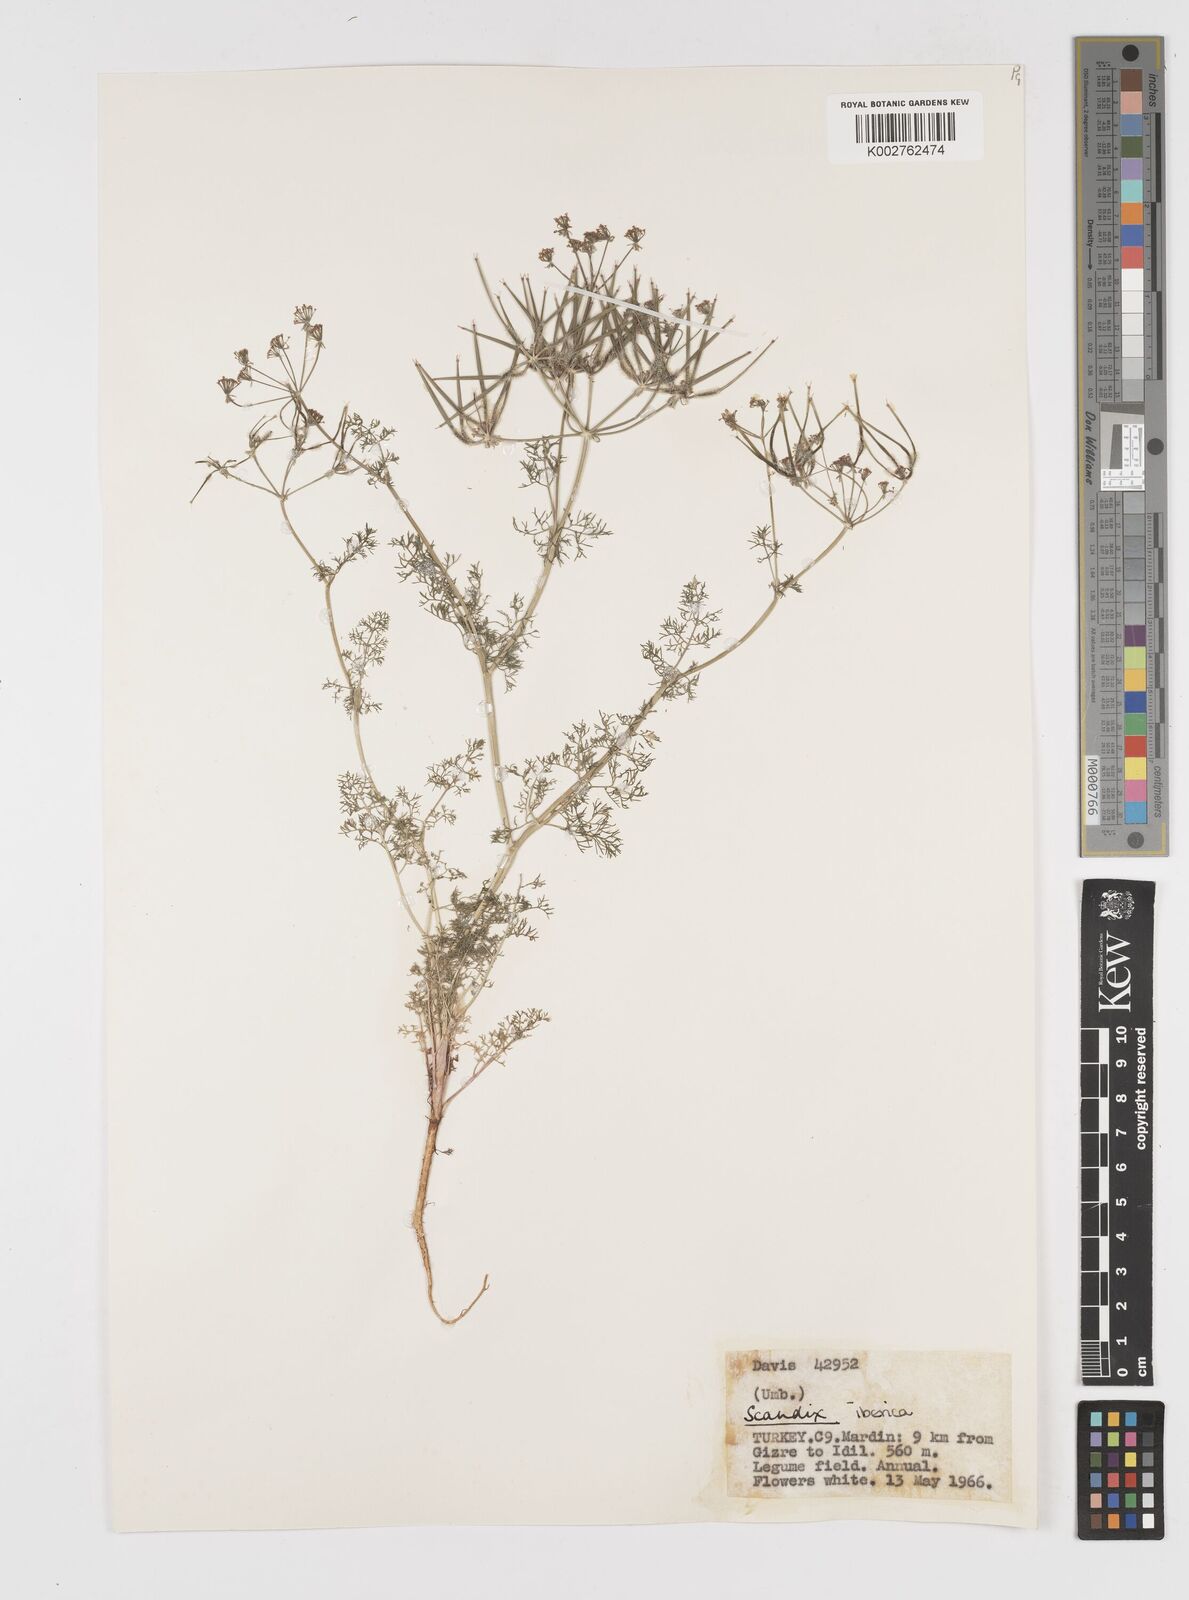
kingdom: Plantae
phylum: Tracheophyta
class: Magnoliopsida
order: Apiales
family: Apiaceae
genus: Scandix
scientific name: Scandix iberica
